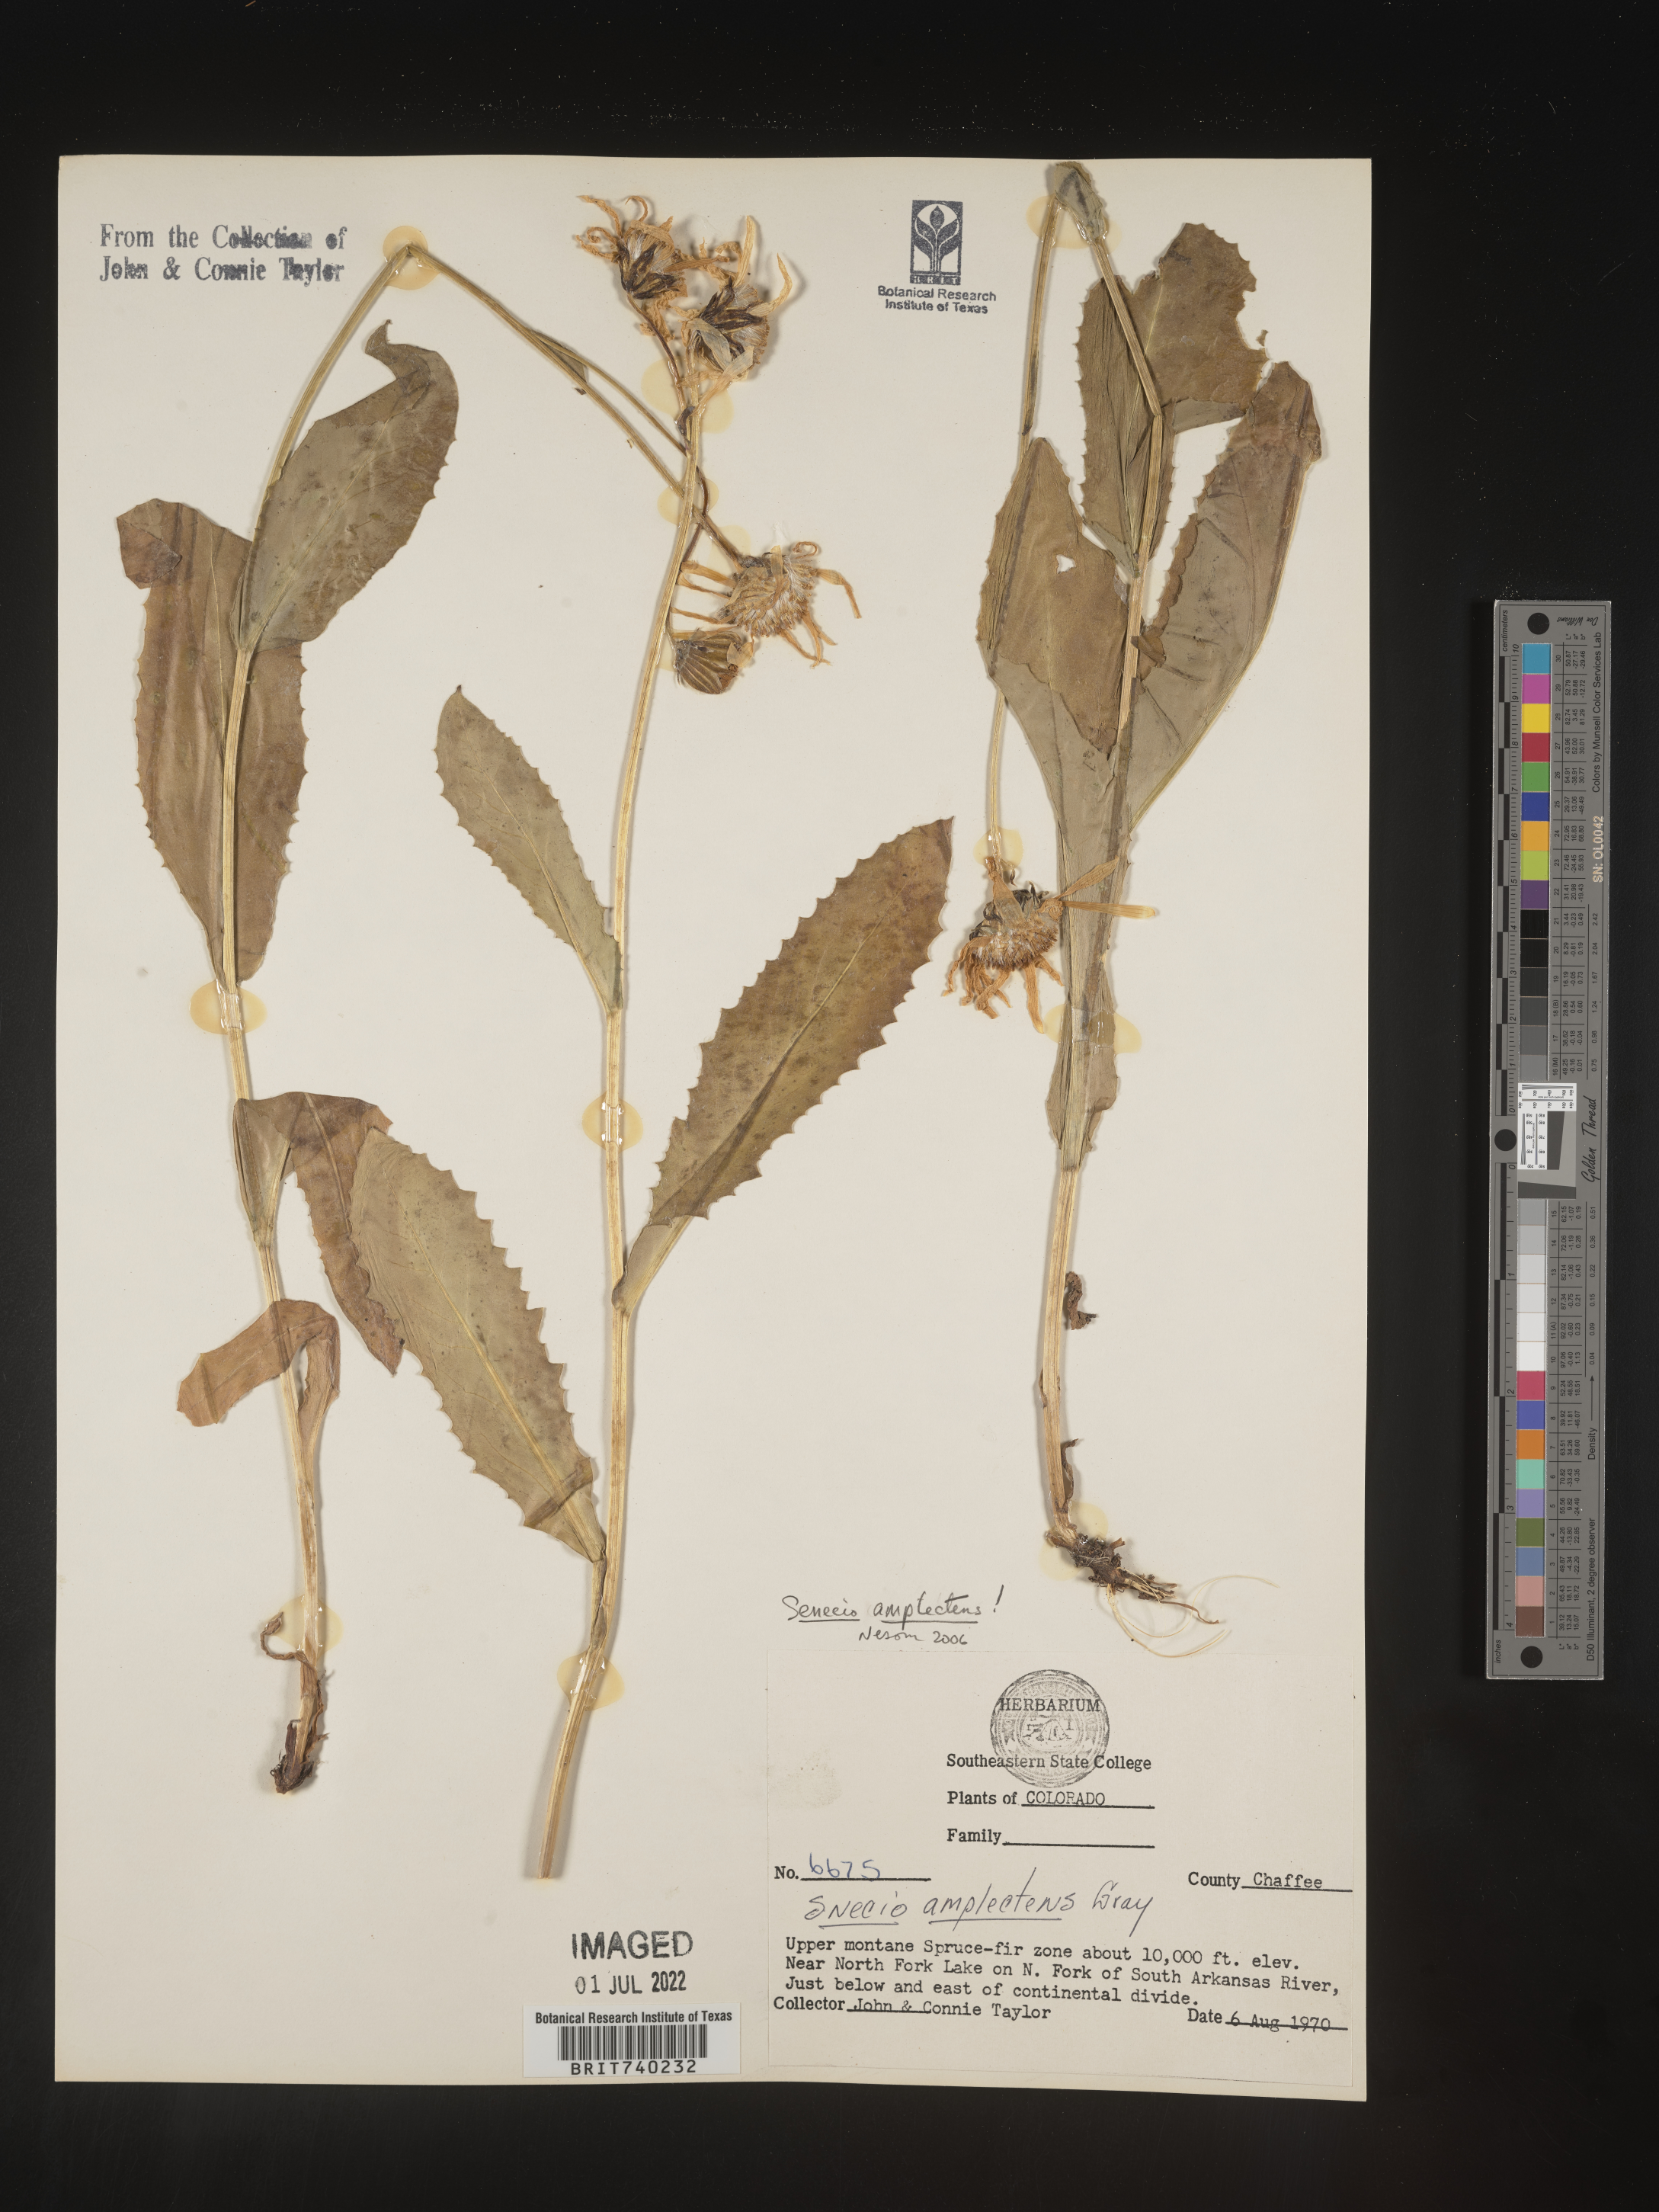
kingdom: Plantae
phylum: Tracheophyta
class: Magnoliopsida
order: Asterales
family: Asteraceae
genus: Senecio
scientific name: Senecio amplectens
